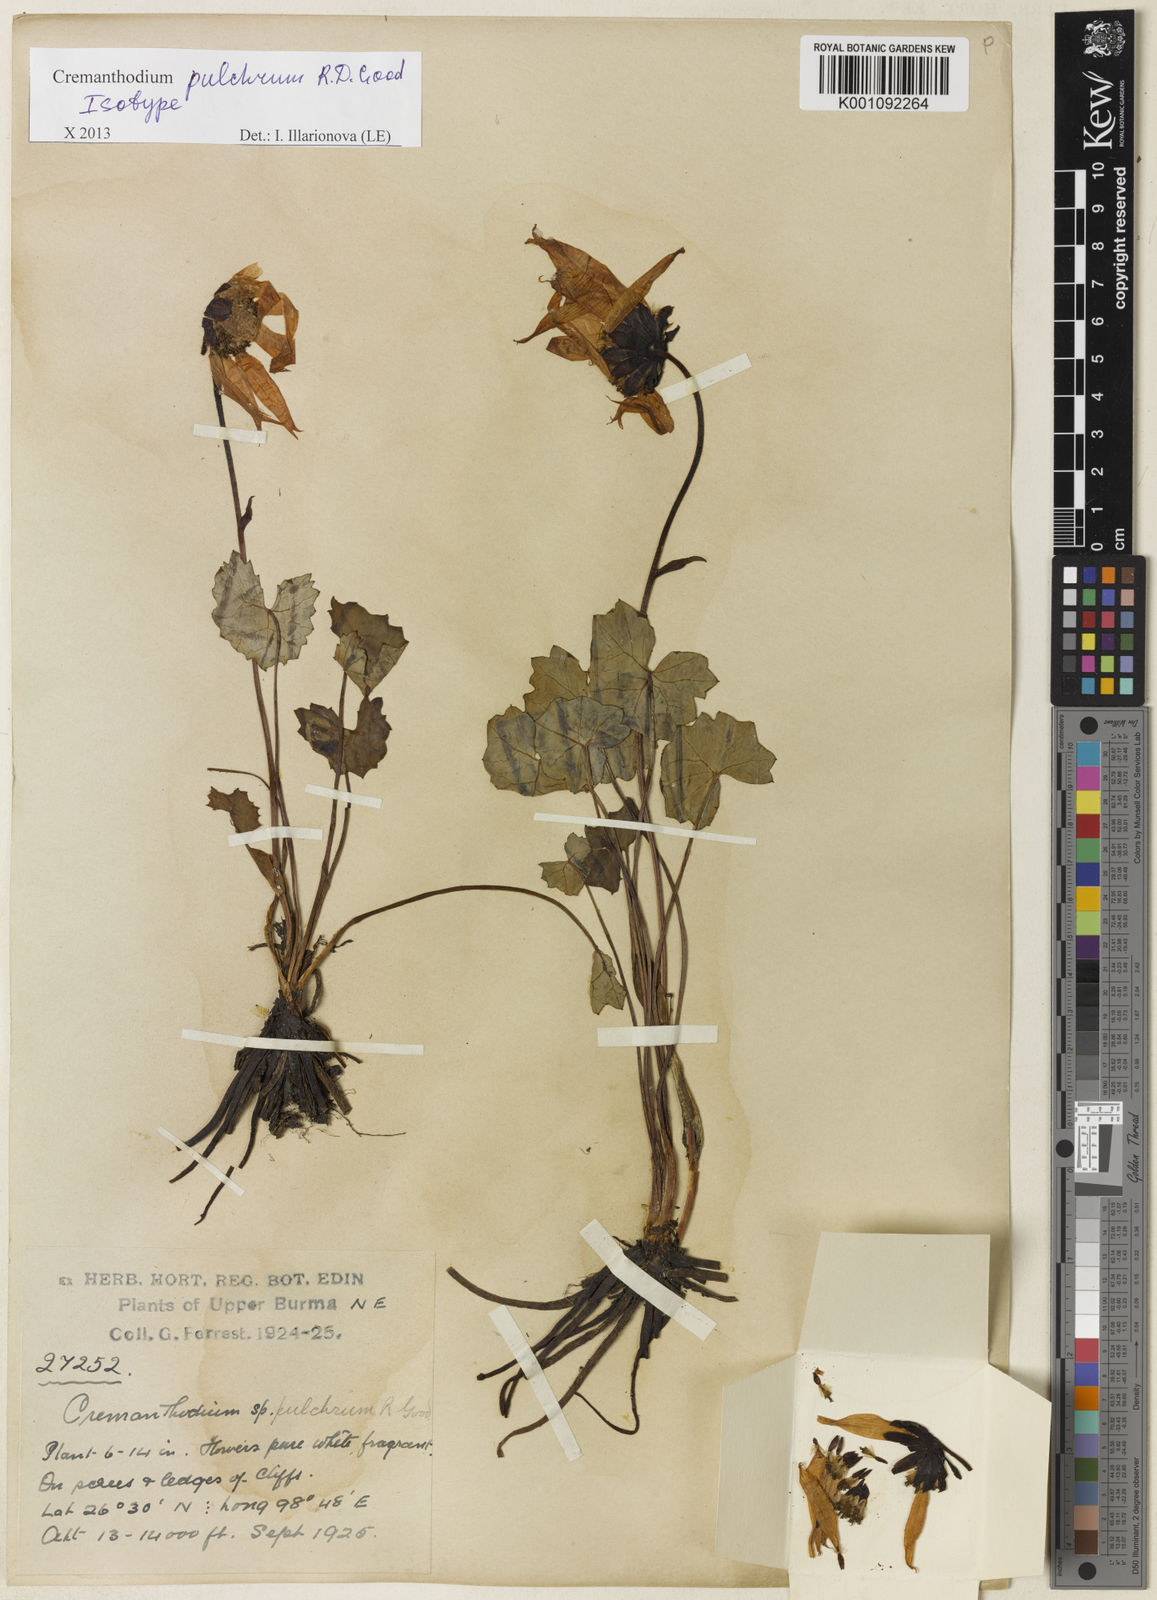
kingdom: Plantae
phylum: Tracheophyta
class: Magnoliopsida
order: Asterales
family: Asteraceae
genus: Cremanthodium
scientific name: Cremanthodium pulchrum
